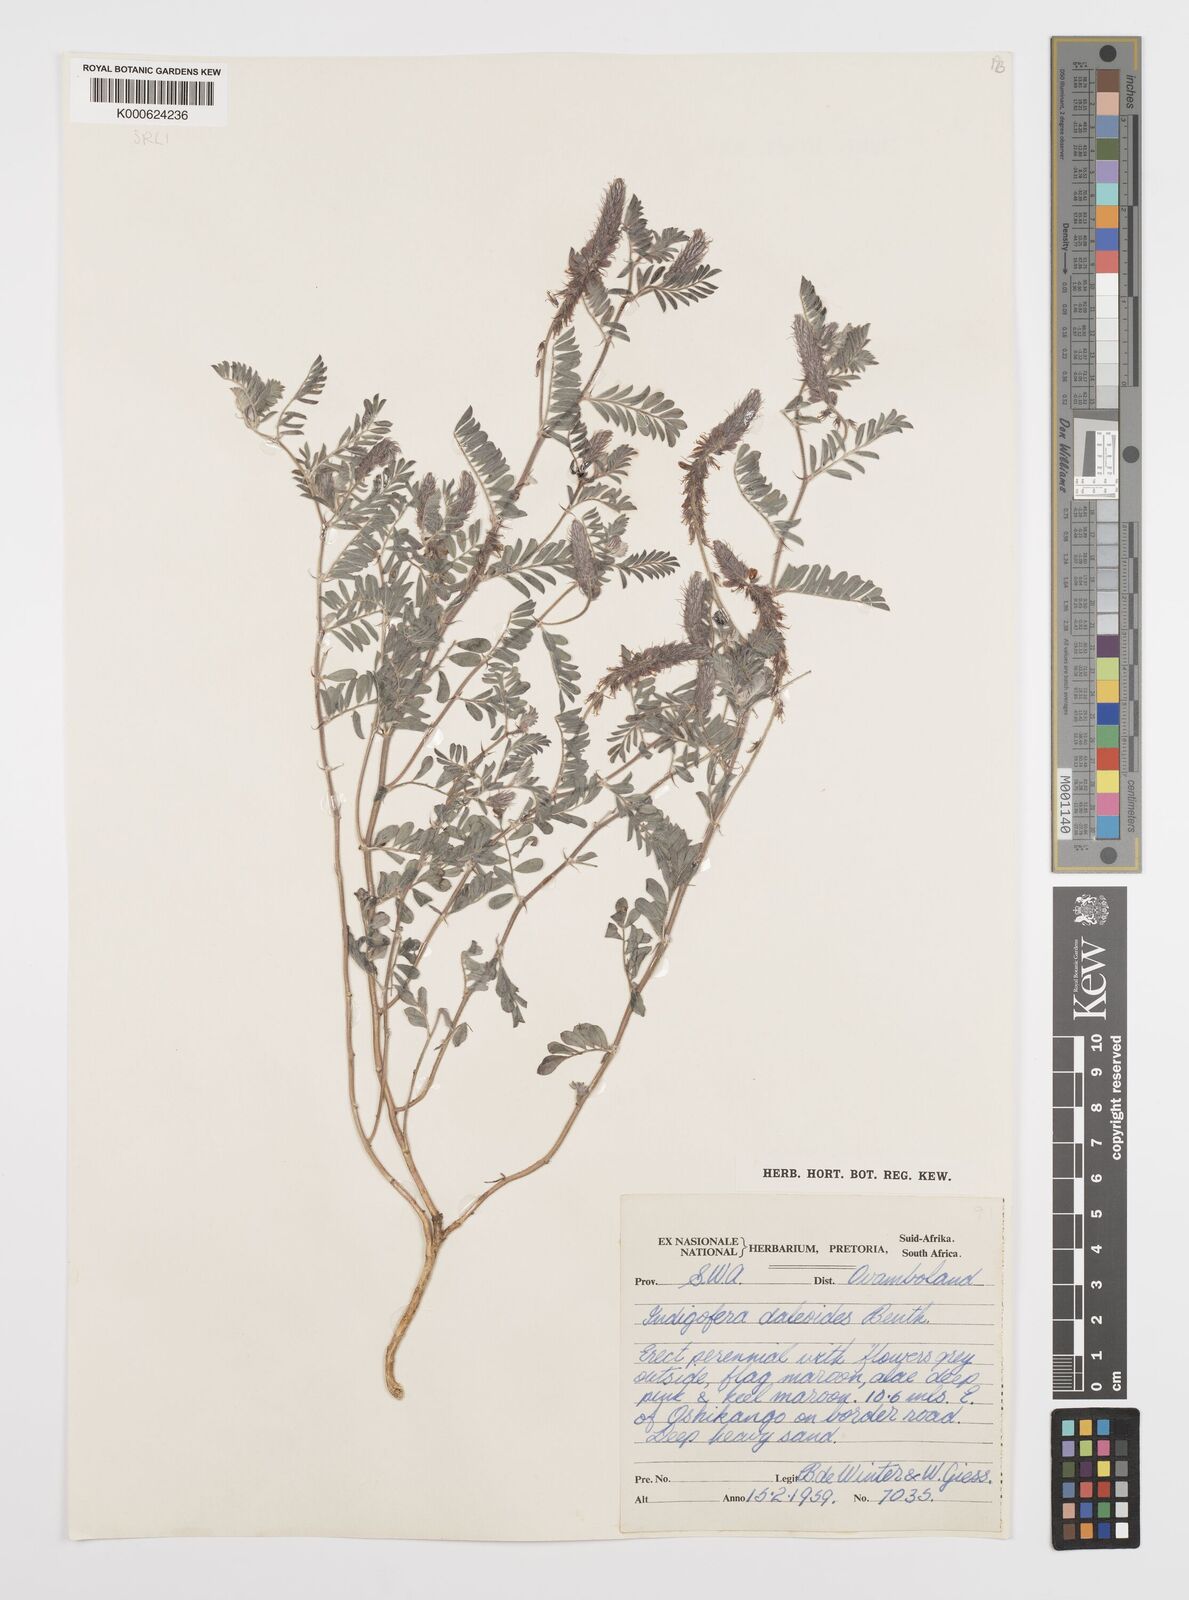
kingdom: Plantae
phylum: Tracheophyta
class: Magnoliopsida
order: Fabales
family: Fabaceae
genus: Indigofera
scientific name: Indigofera daleoides
